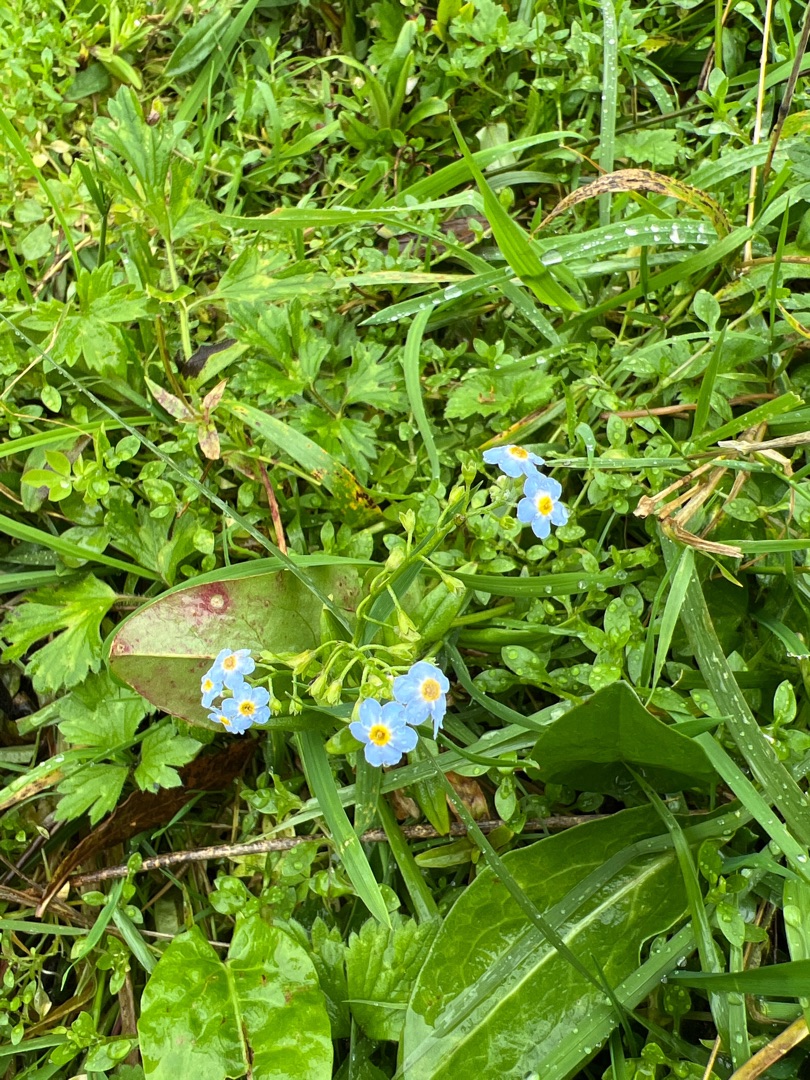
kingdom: Plantae
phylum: Tracheophyta
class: Magnoliopsida
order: Boraginales
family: Boraginaceae
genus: Myosotis
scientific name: Myosotis scorpioides
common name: Eng-forglemmigej
